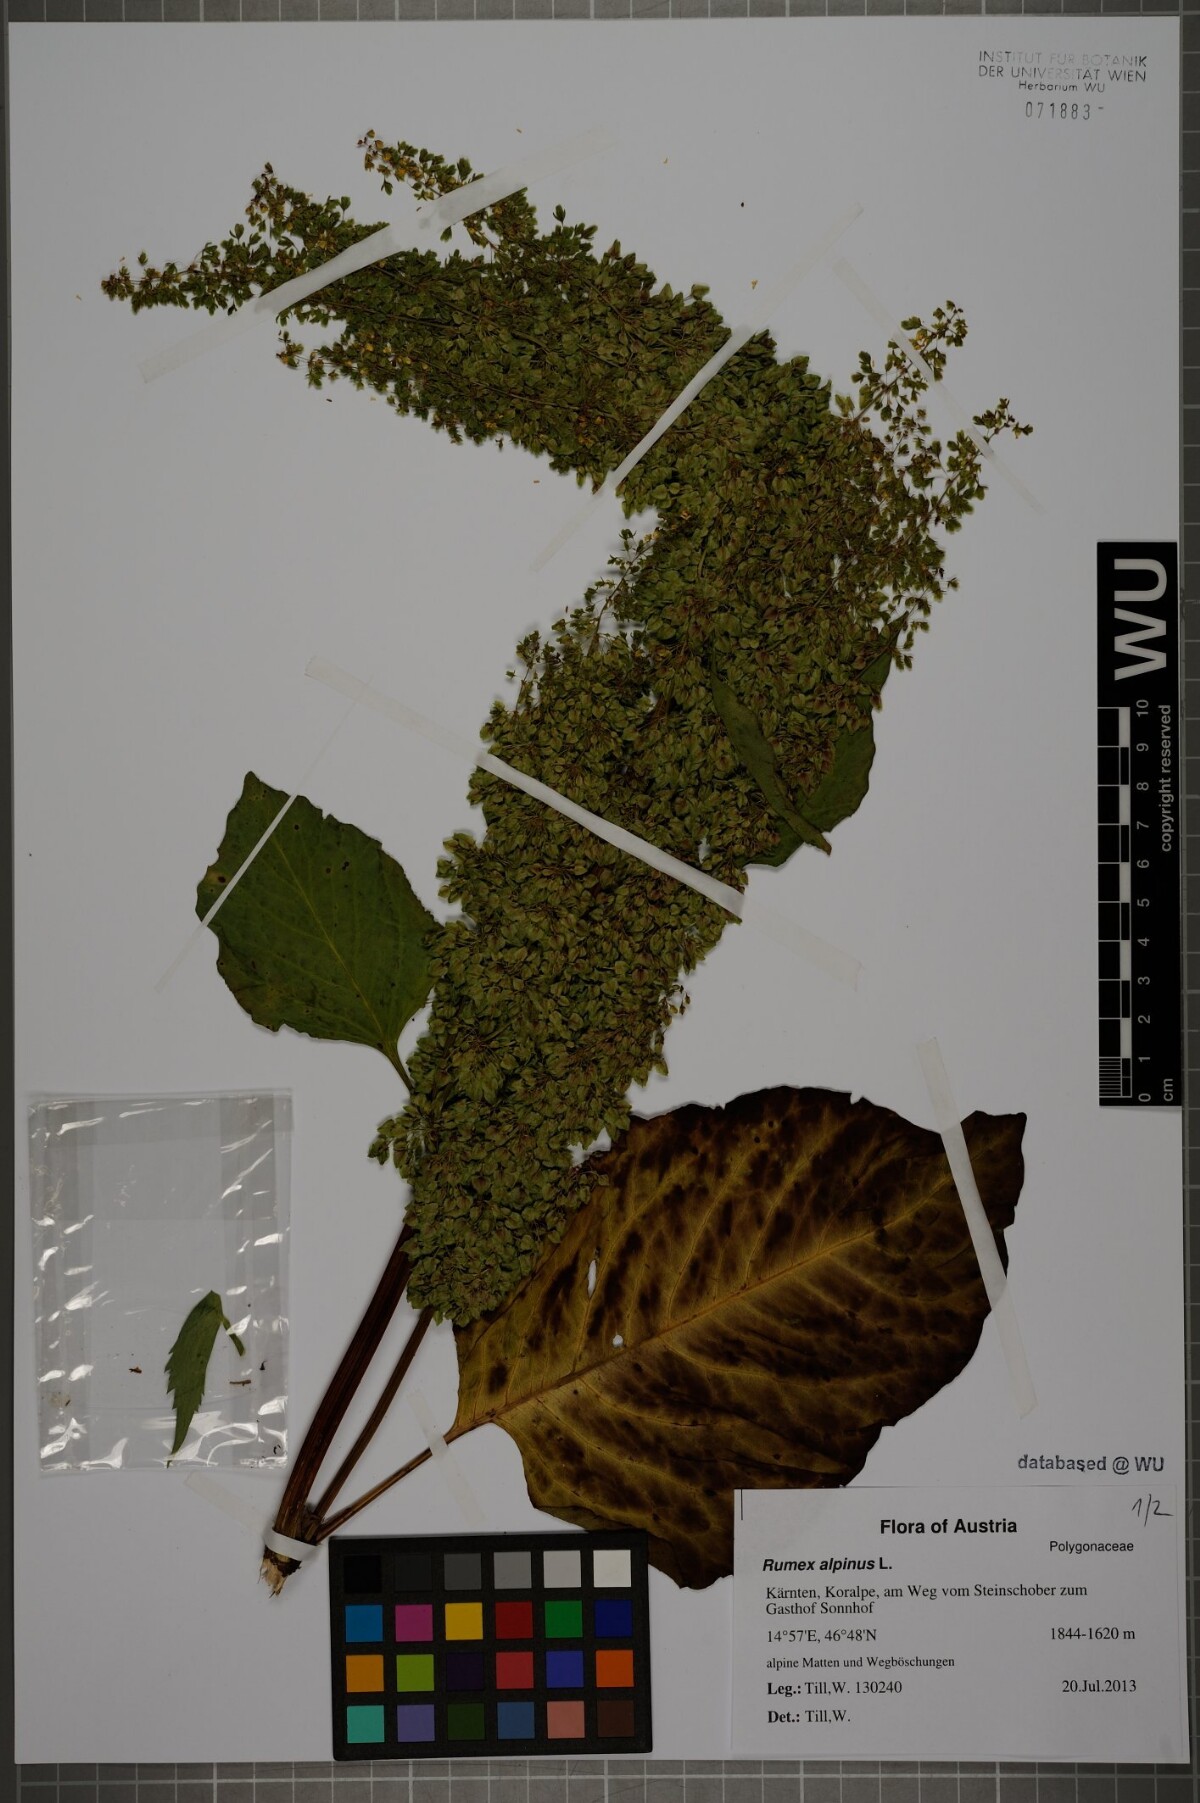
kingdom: Plantae
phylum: Tracheophyta
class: Magnoliopsida
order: Caryophyllales
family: Polygonaceae
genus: Rumex
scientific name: Rumex alpinus
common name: Alpine dock
